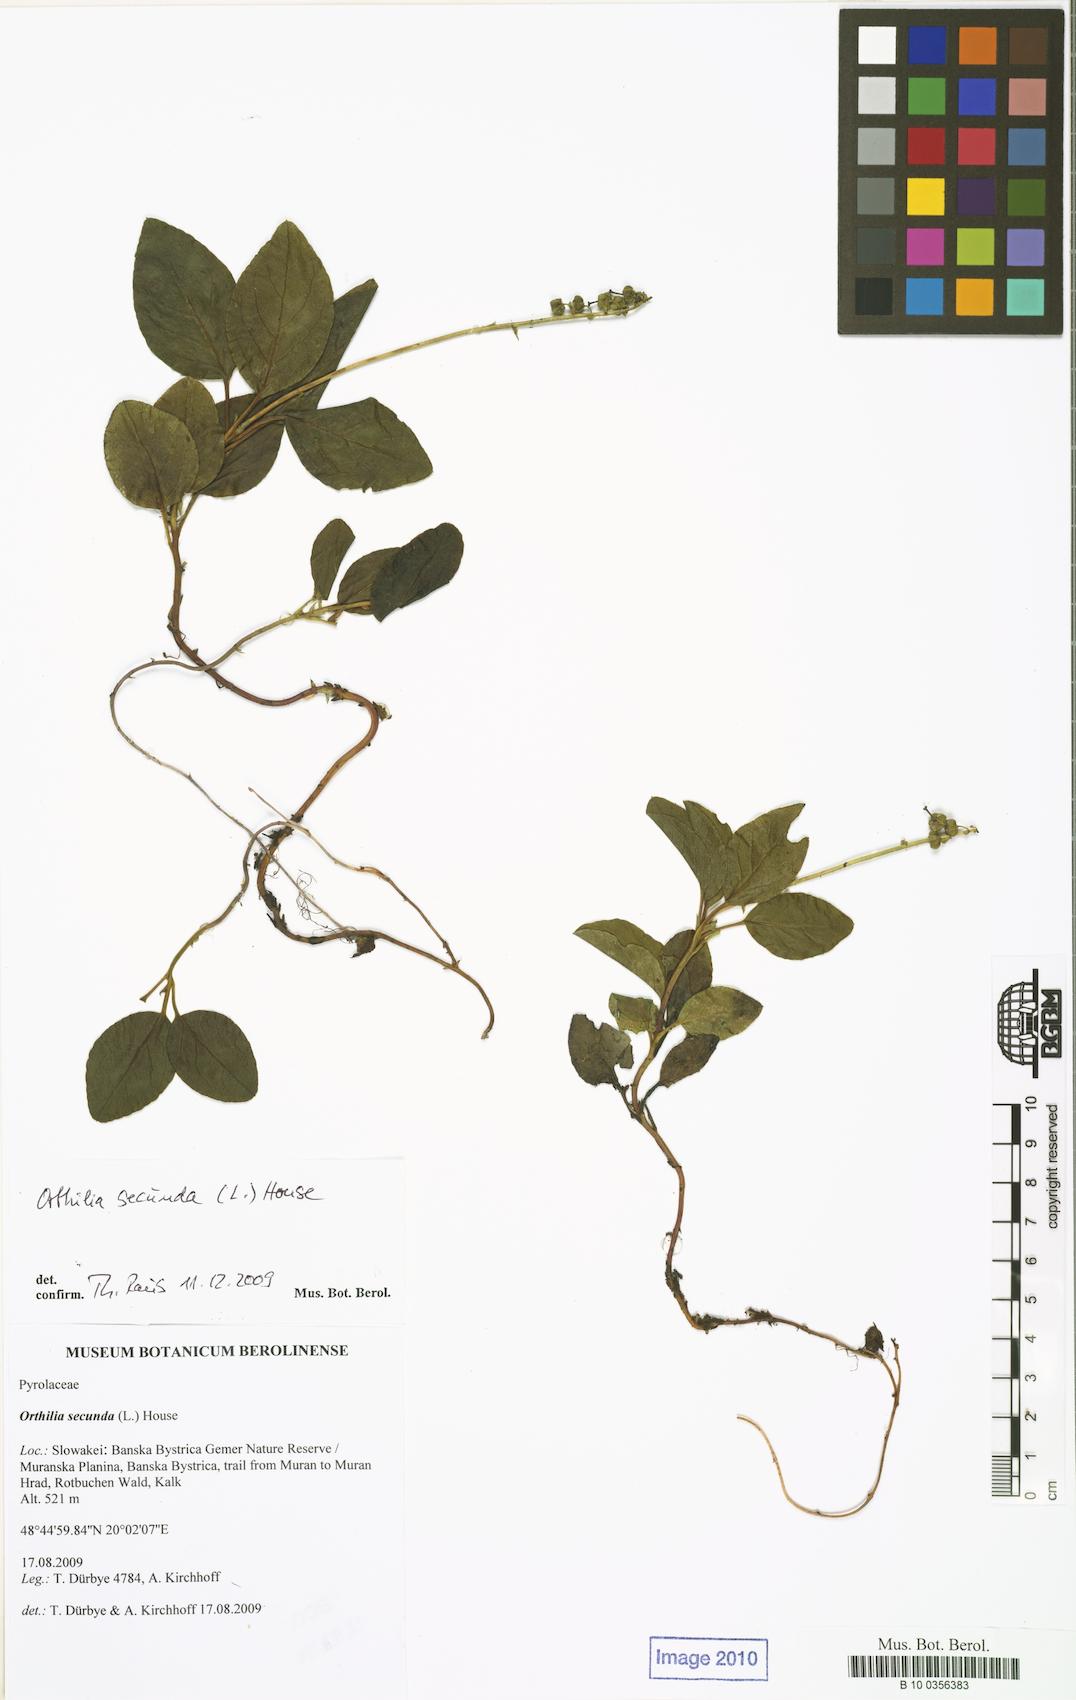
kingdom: Plantae
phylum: Tracheophyta
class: Magnoliopsida
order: Ericales
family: Ericaceae
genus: Orthilia
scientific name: Orthilia secunda
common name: One-sided orthilia
